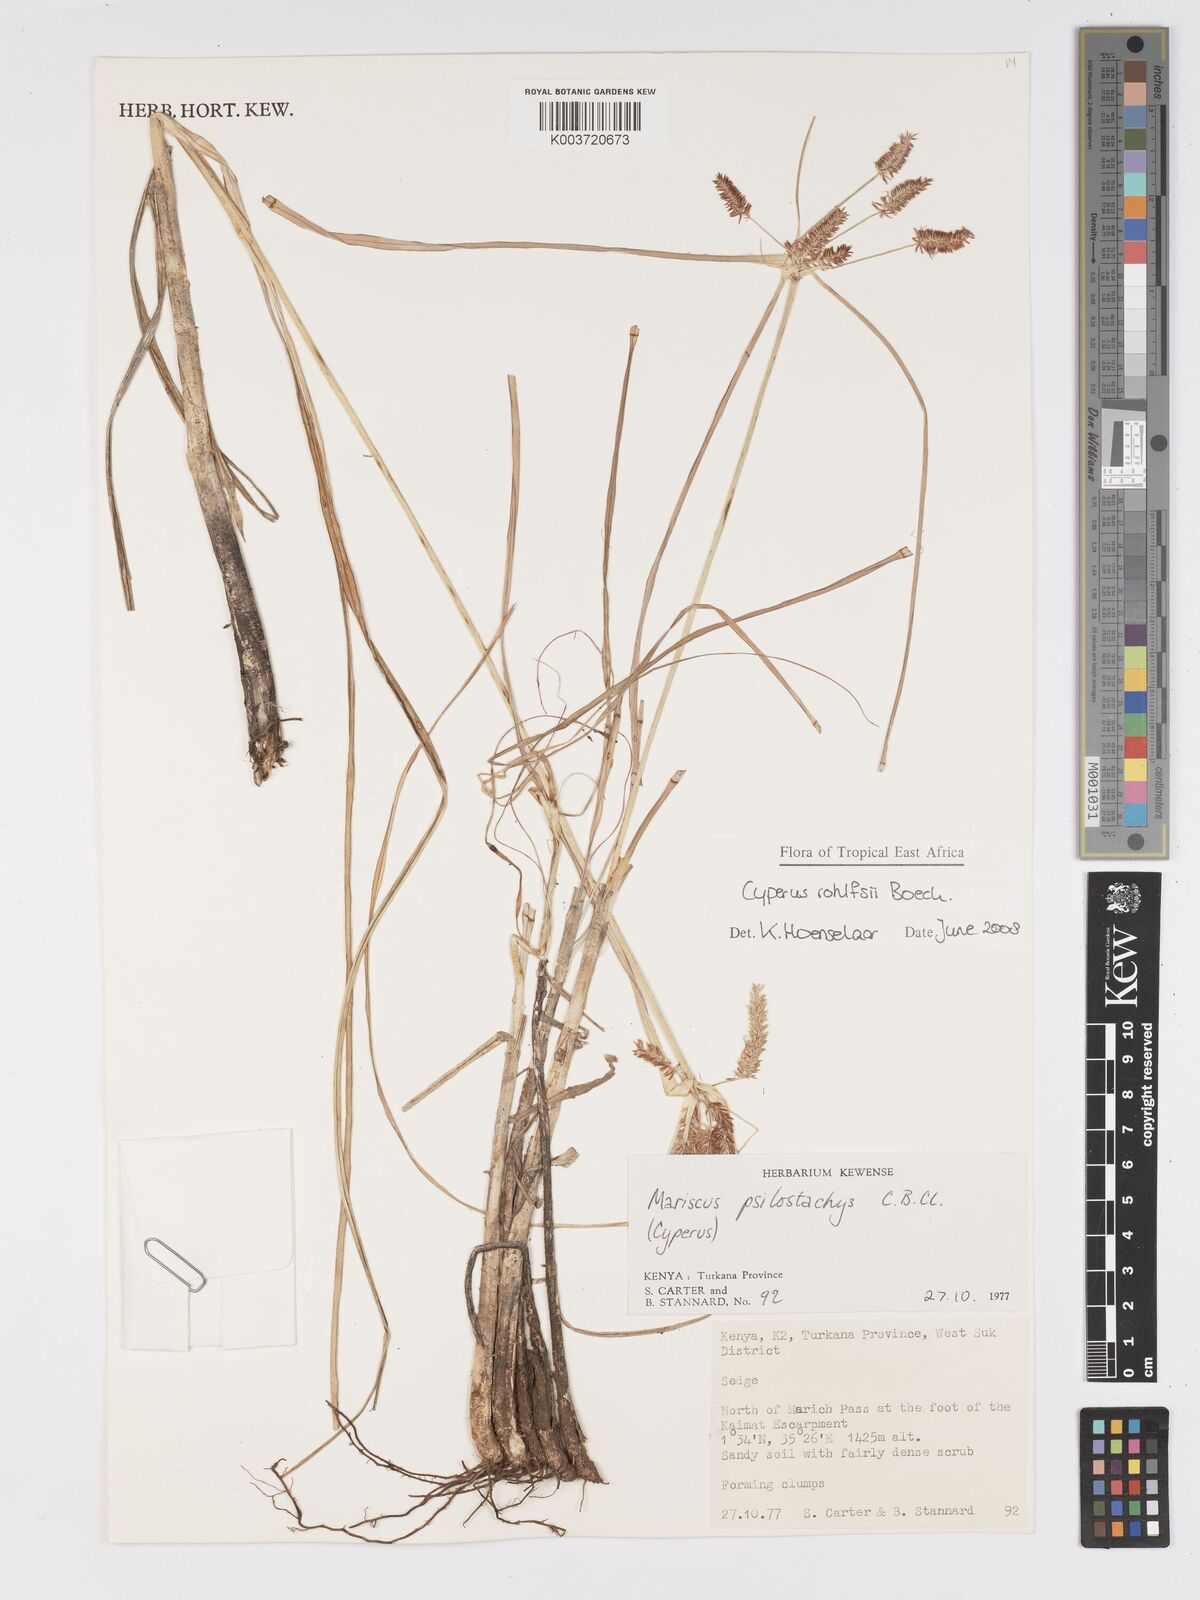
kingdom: Plantae
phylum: Tracheophyta
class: Liliopsida
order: Poales
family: Cyperaceae
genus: Cyperus
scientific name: Cyperus rohlfsii
